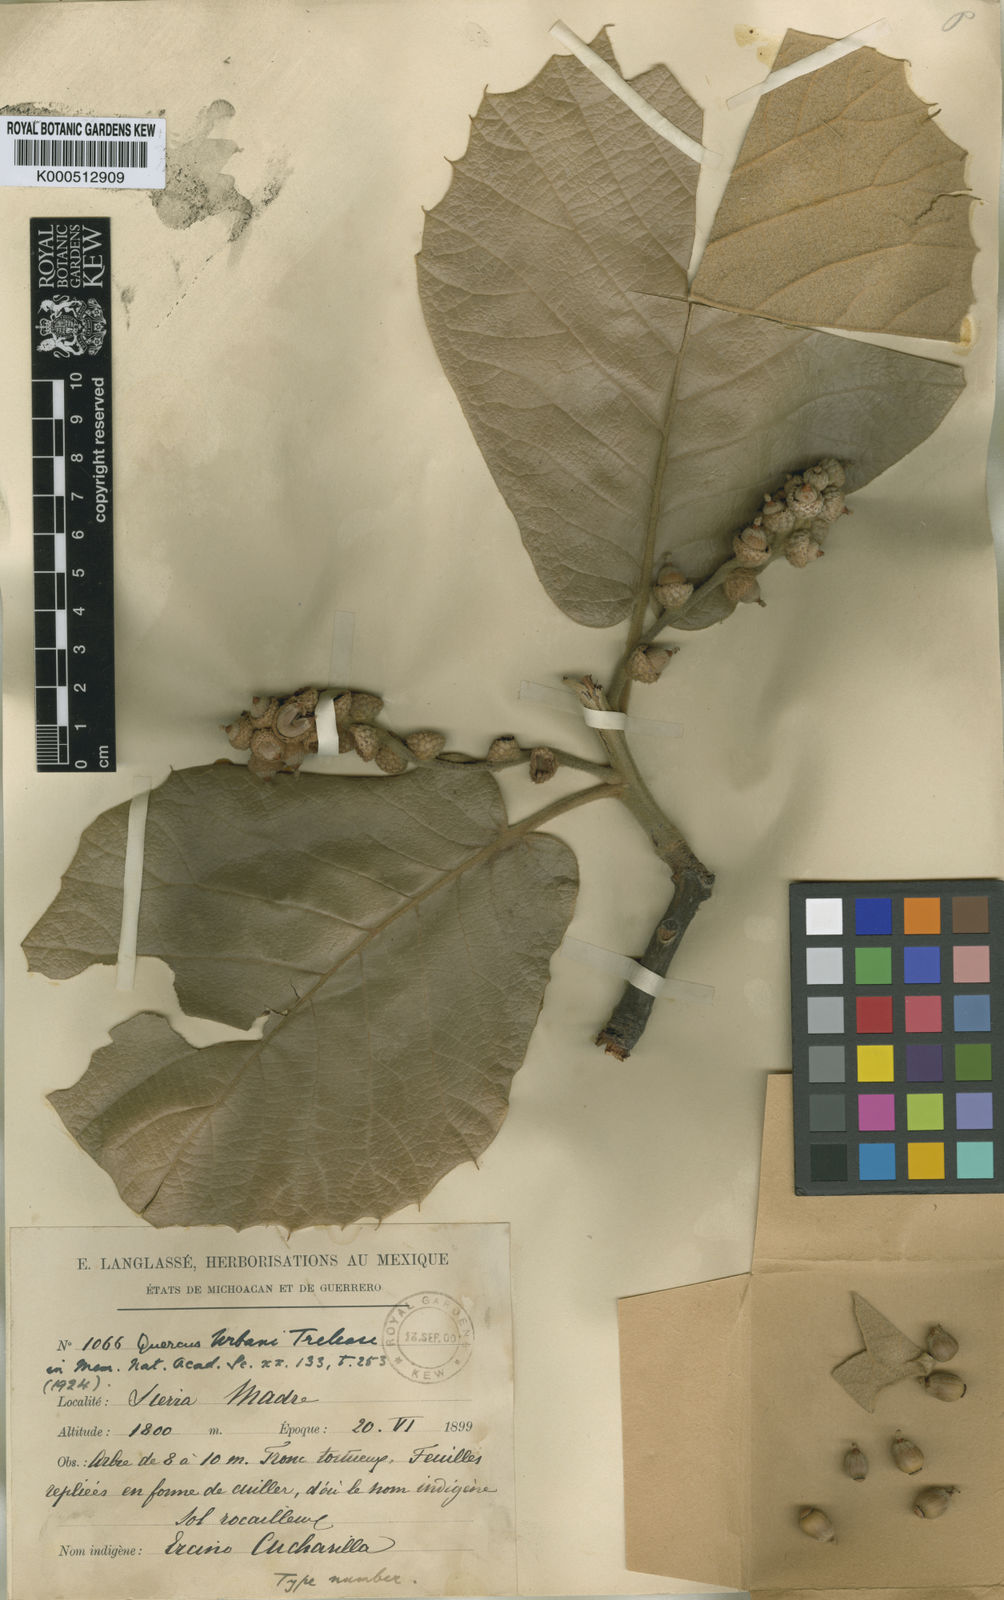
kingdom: Plantae
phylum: Tracheophyta
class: Magnoliopsida
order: Fagales
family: Fagaceae
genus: Quercus
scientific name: Quercus urbani
